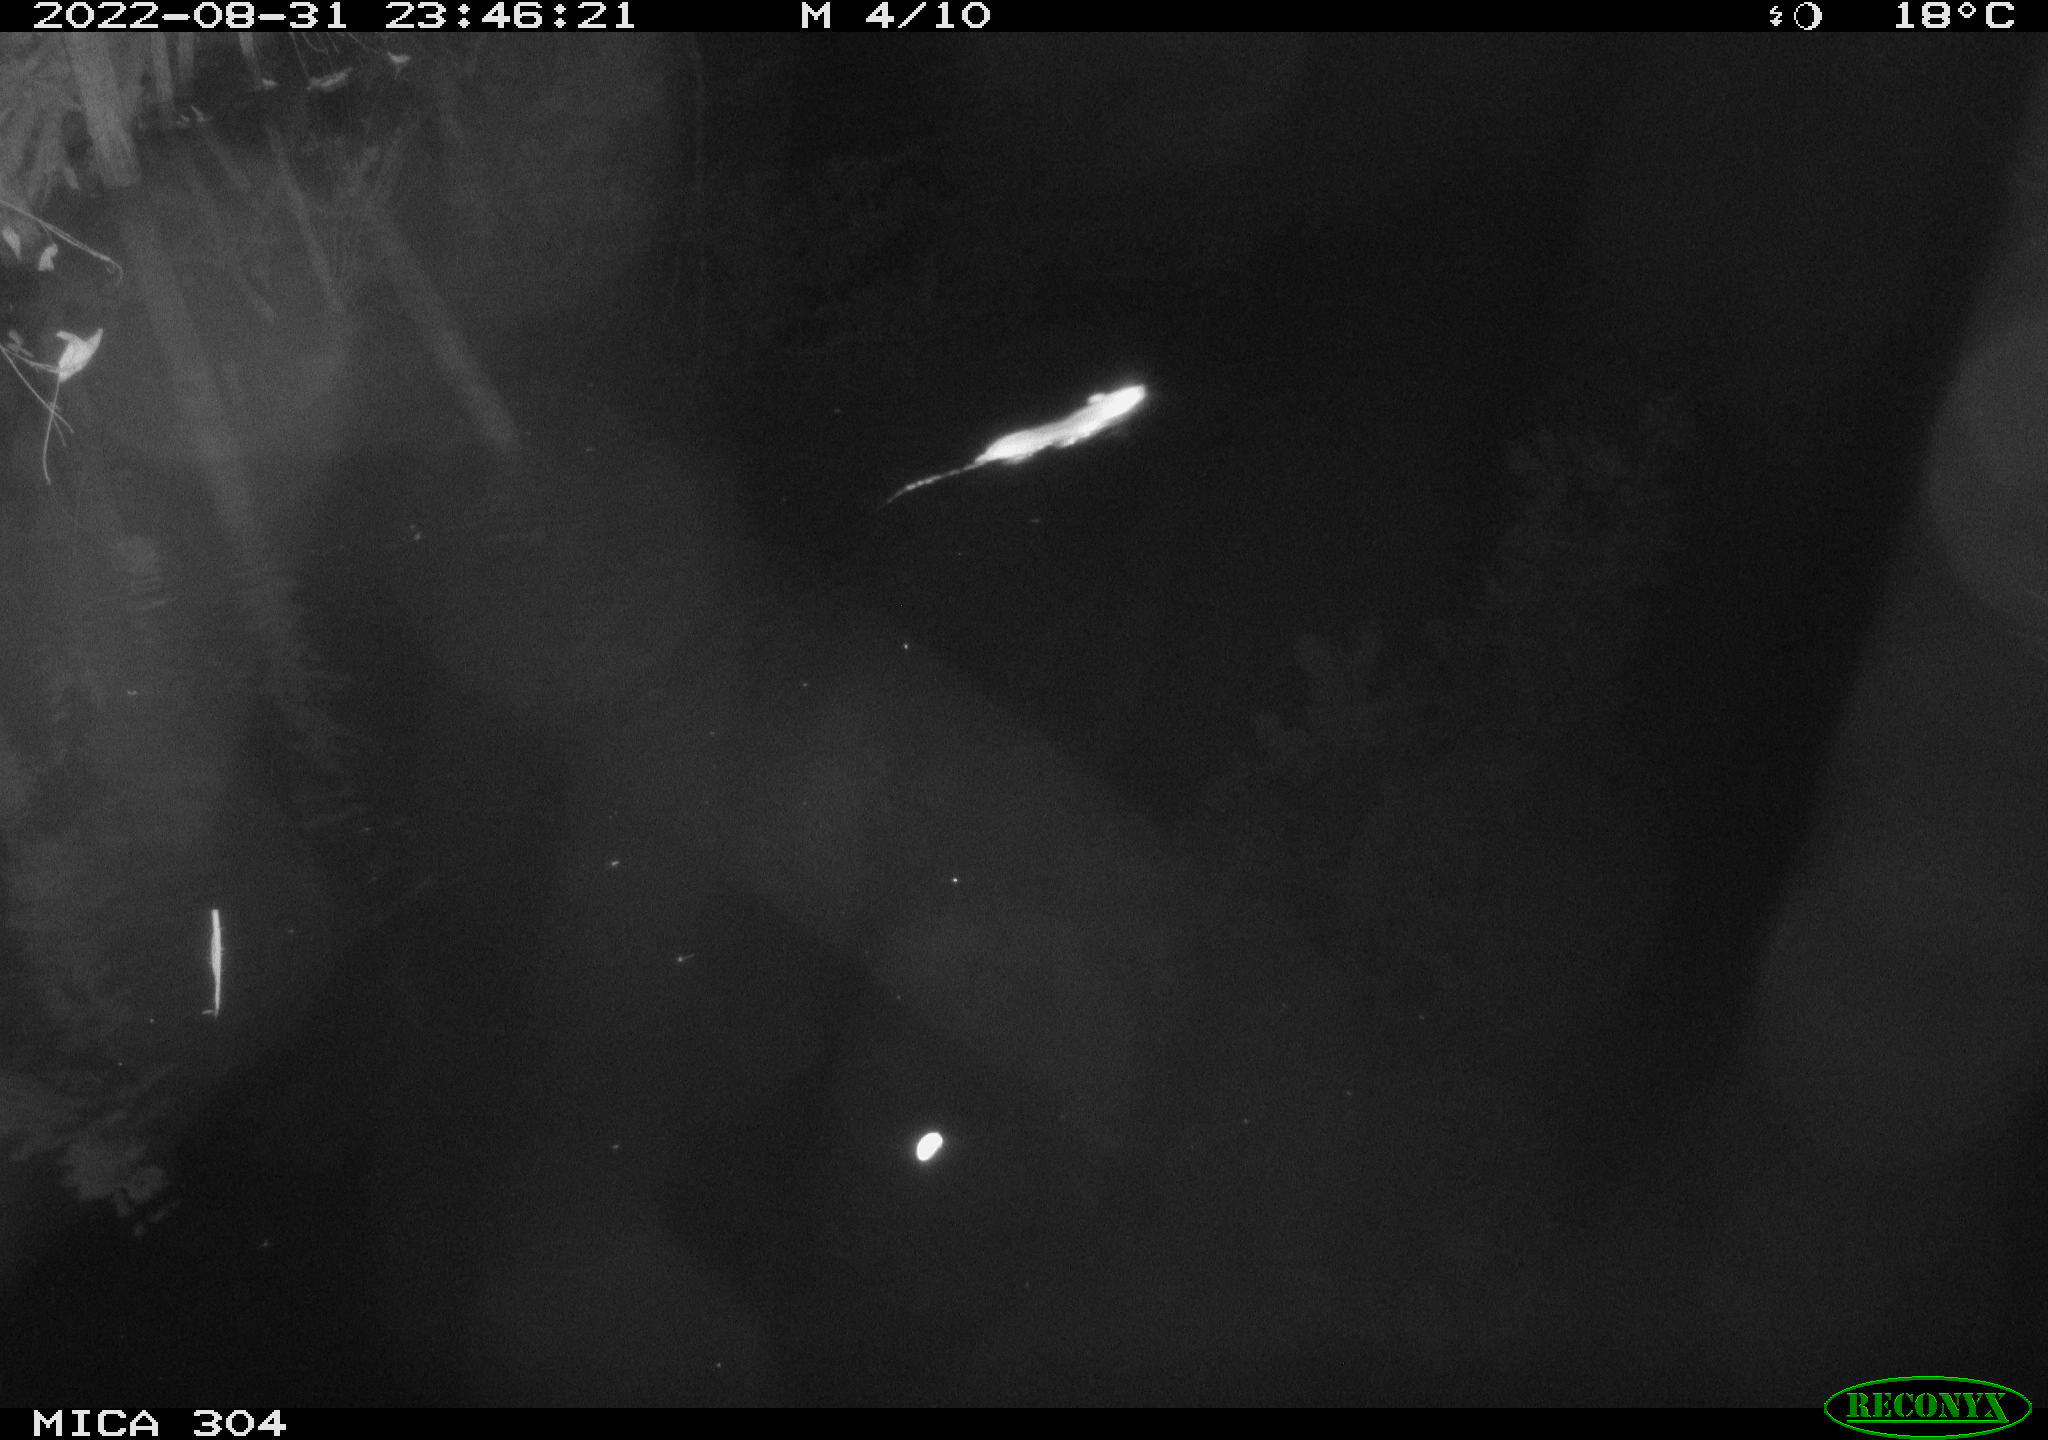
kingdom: Animalia
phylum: Chordata
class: Mammalia
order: Rodentia
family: Muridae
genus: Rattus
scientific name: Rattus norvegicus
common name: Brown rat
